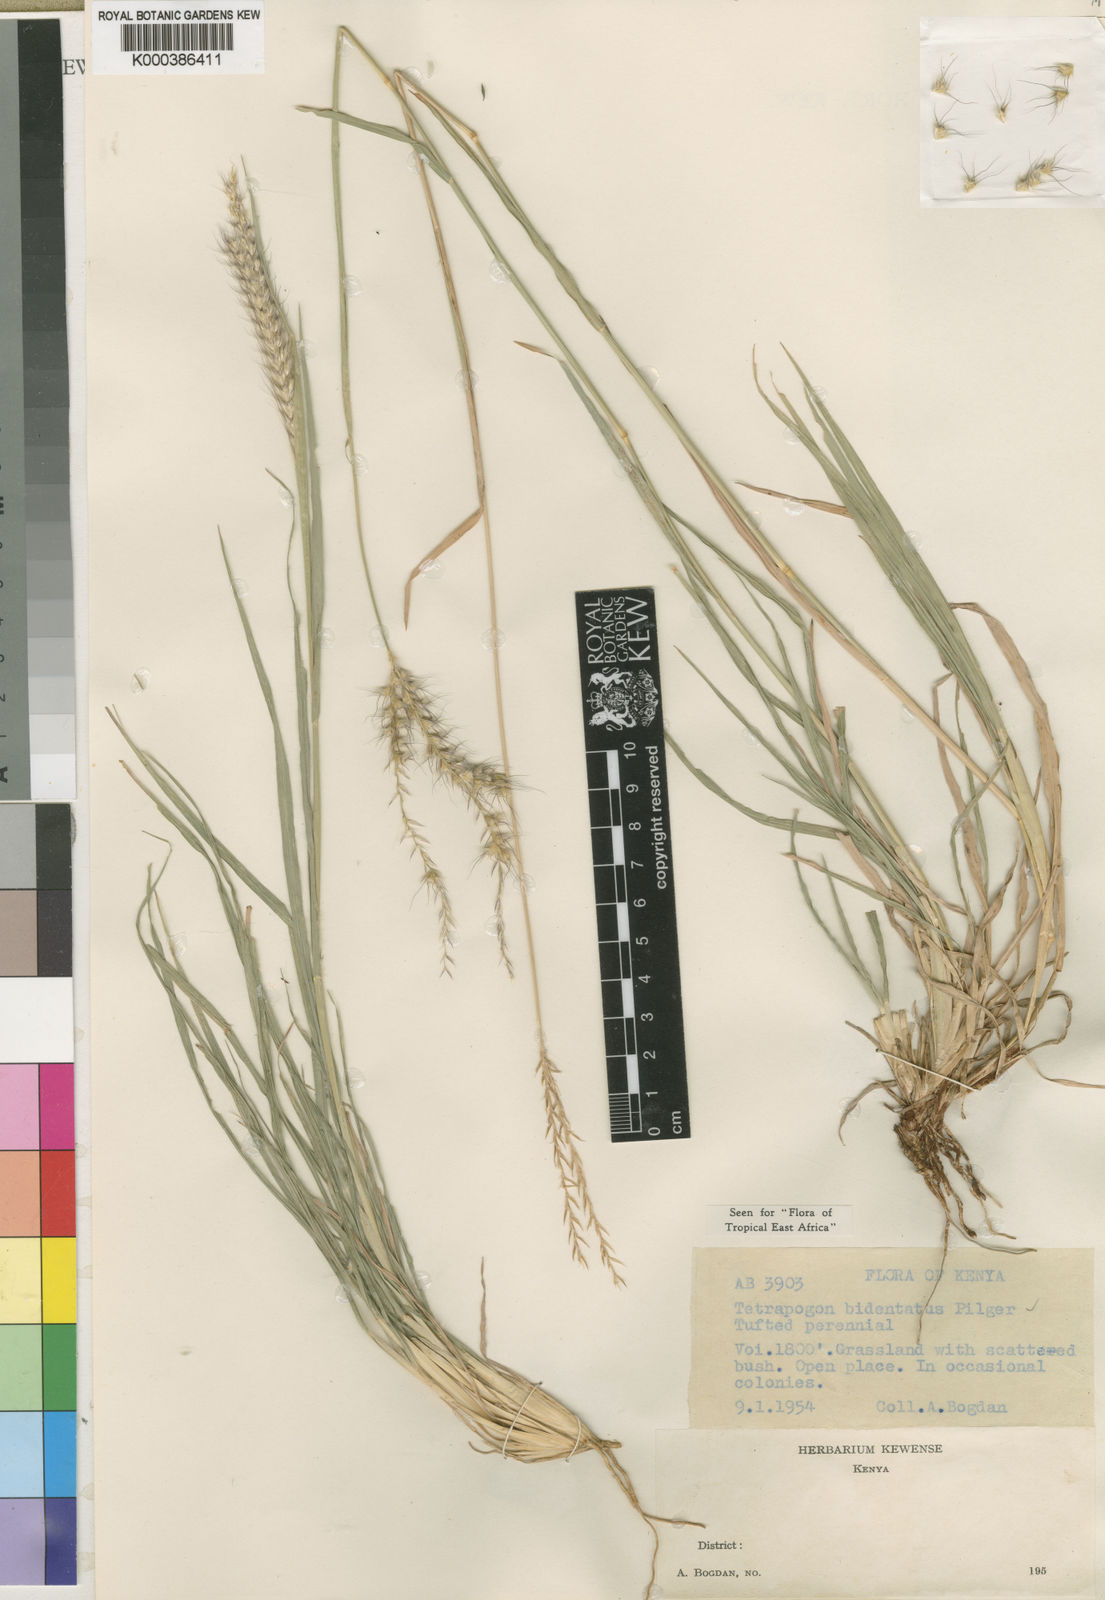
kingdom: Plantae
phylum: Tracheophyta
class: Liliopsida
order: Poales
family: Poaceae
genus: Tetrapogon
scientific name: Tetrapogon bidentatus
